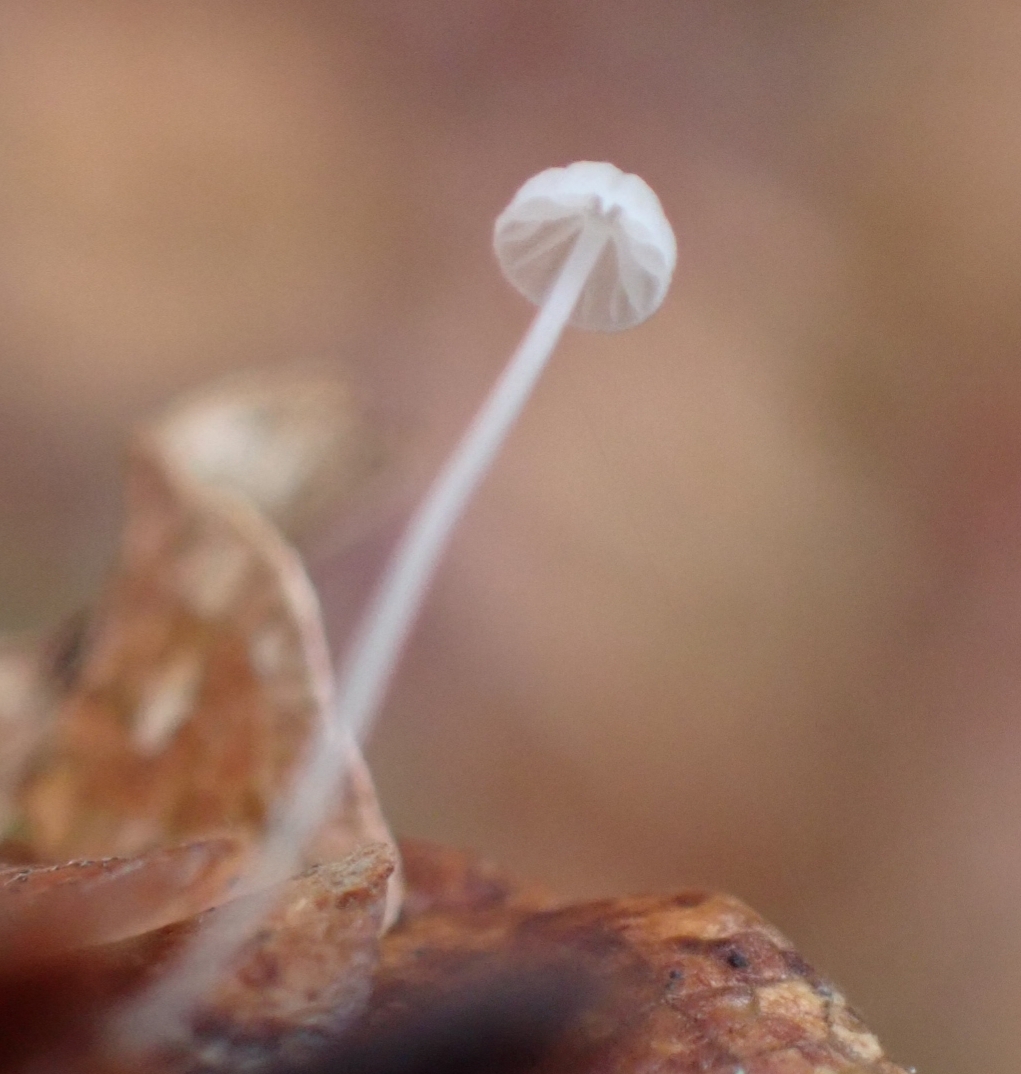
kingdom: Fungi
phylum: Basidiomycota
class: Agaricomycetes
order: Agaricales
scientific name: Agaricales
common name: champignonordenen
